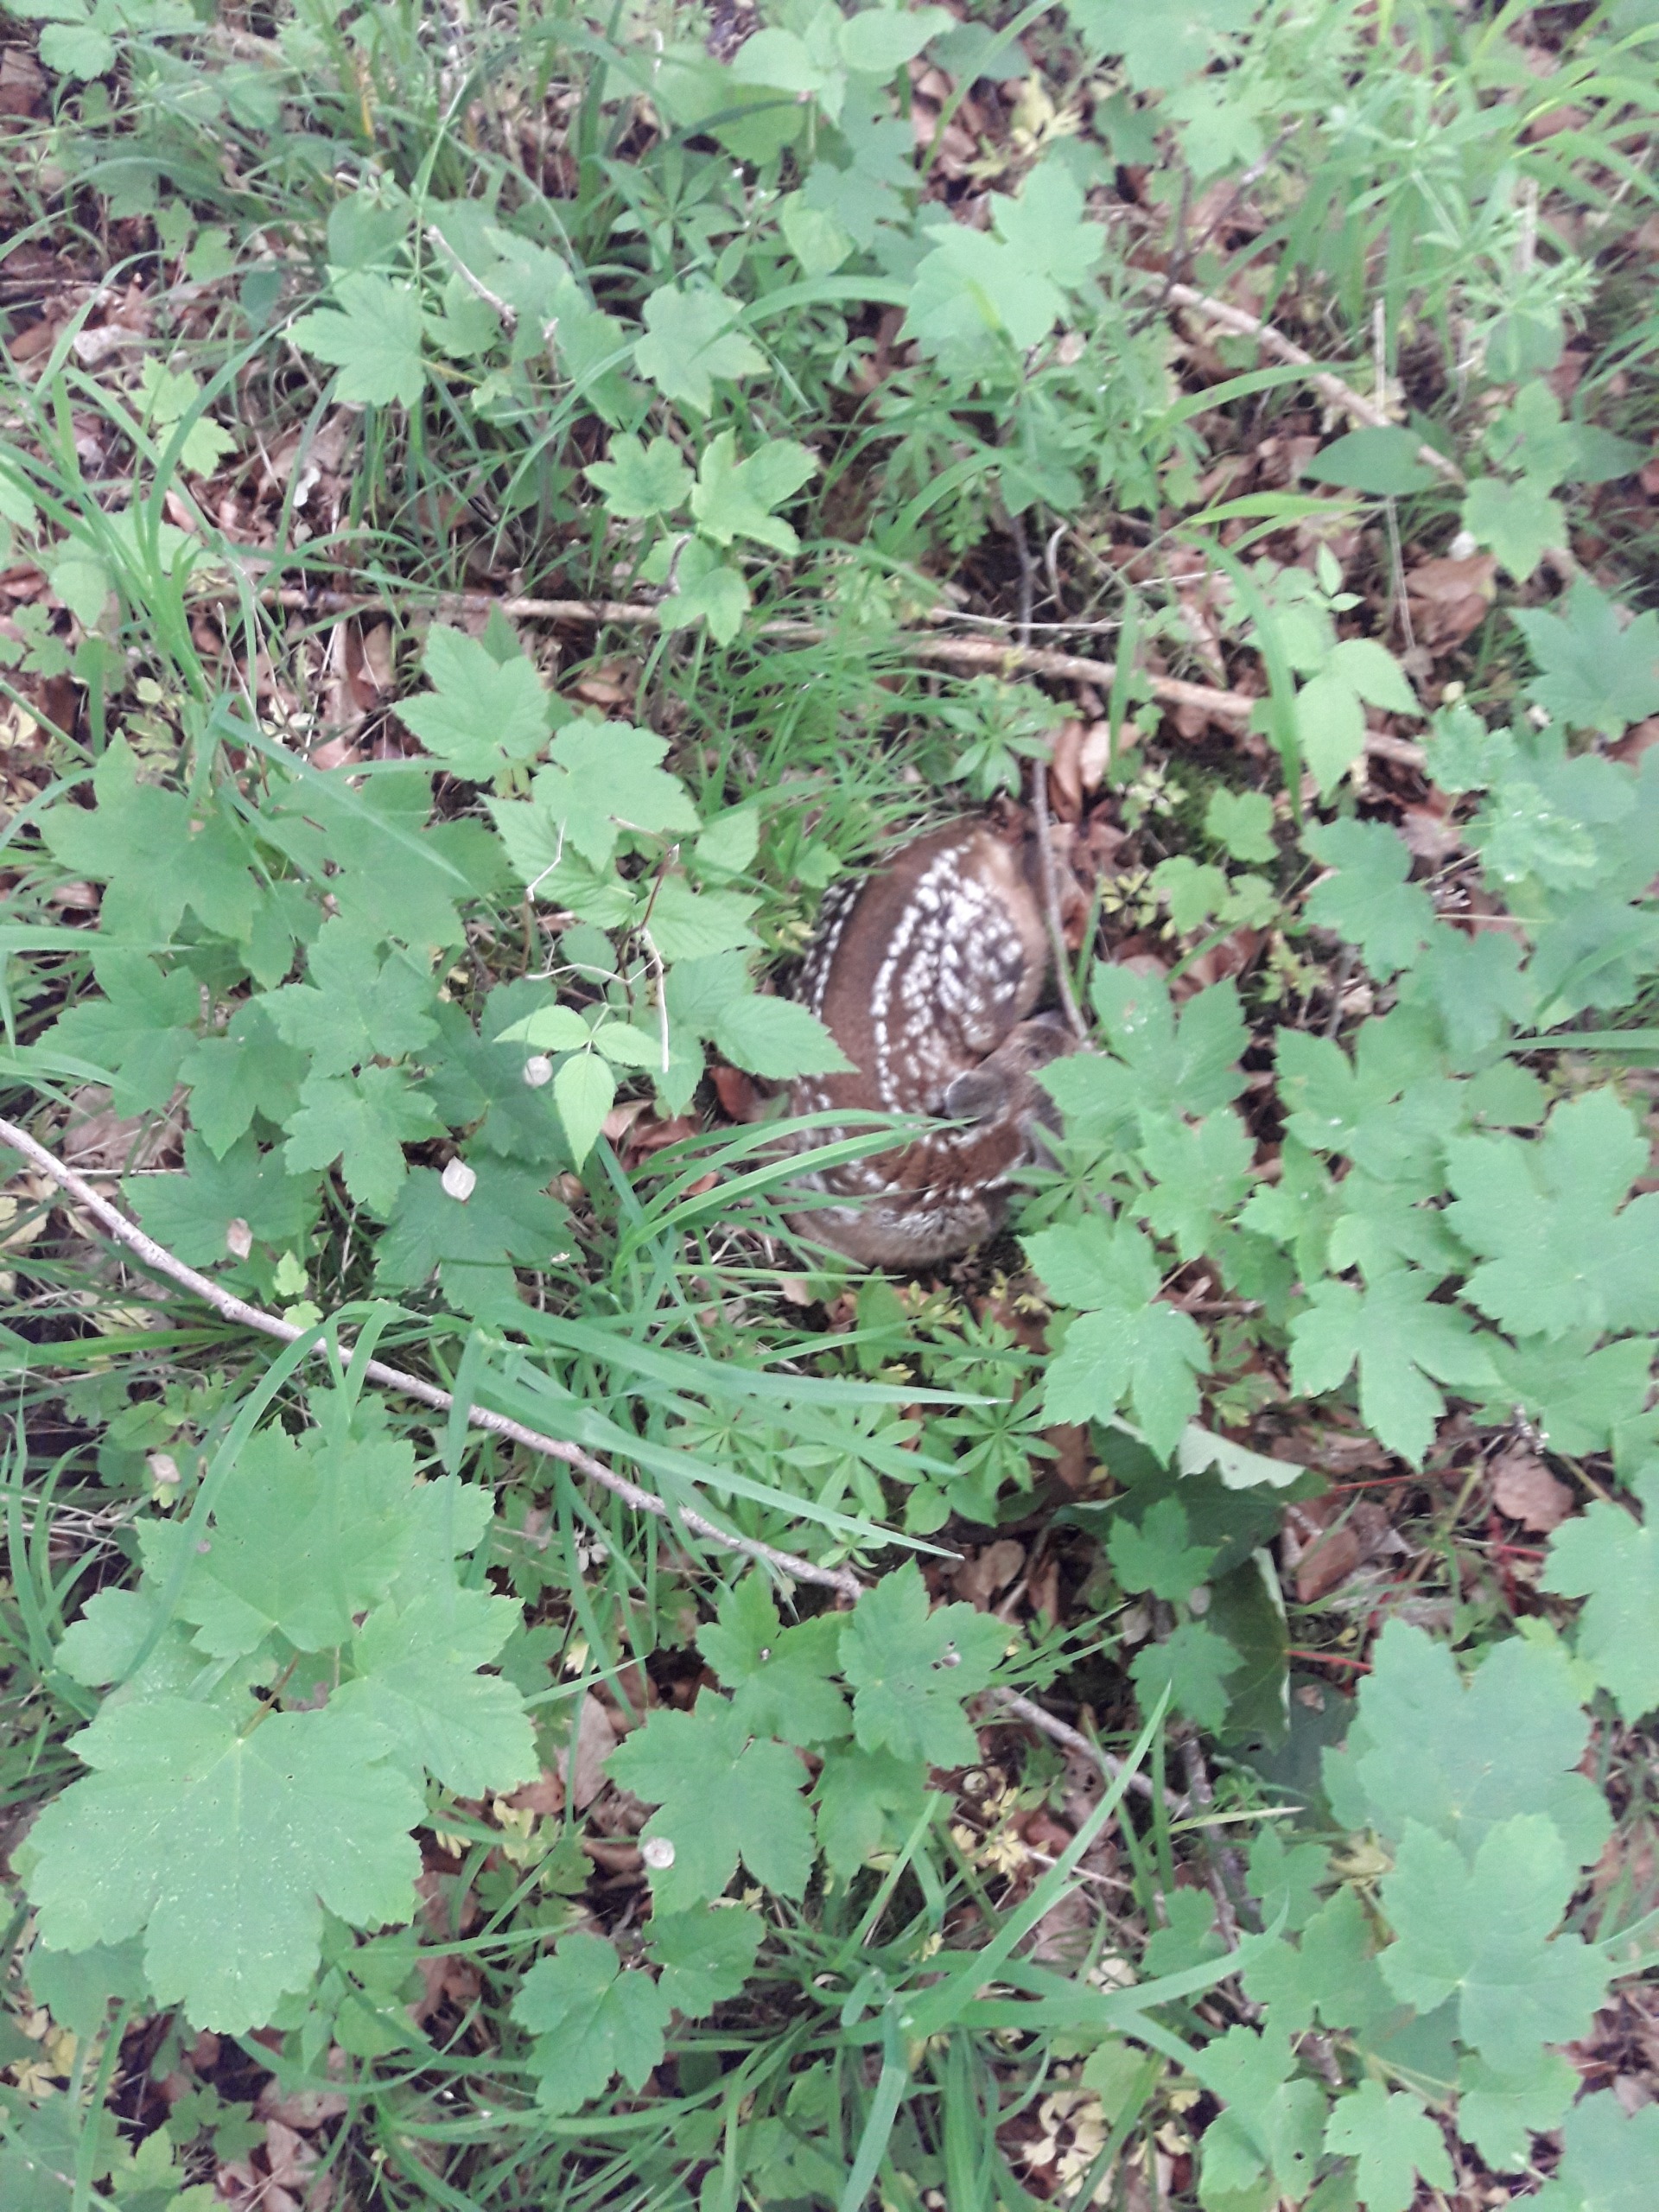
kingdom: Animalia
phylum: Chordata
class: Mammalia
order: Artiodactyla
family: Cervidae
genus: Capreolus
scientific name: Capreolus capreolus
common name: Rådyr
